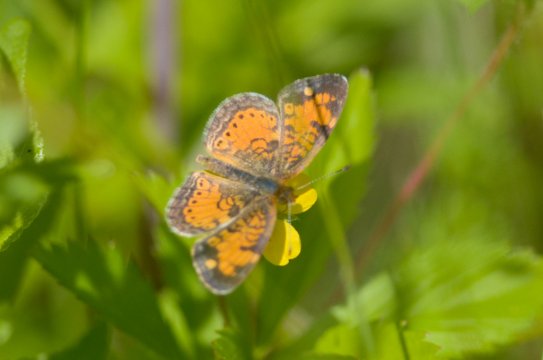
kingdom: Animalia
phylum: Arthropoda
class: Insecta
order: Lepidoptera
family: Nymphalidae
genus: Phyciodes
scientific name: Phyciodes
